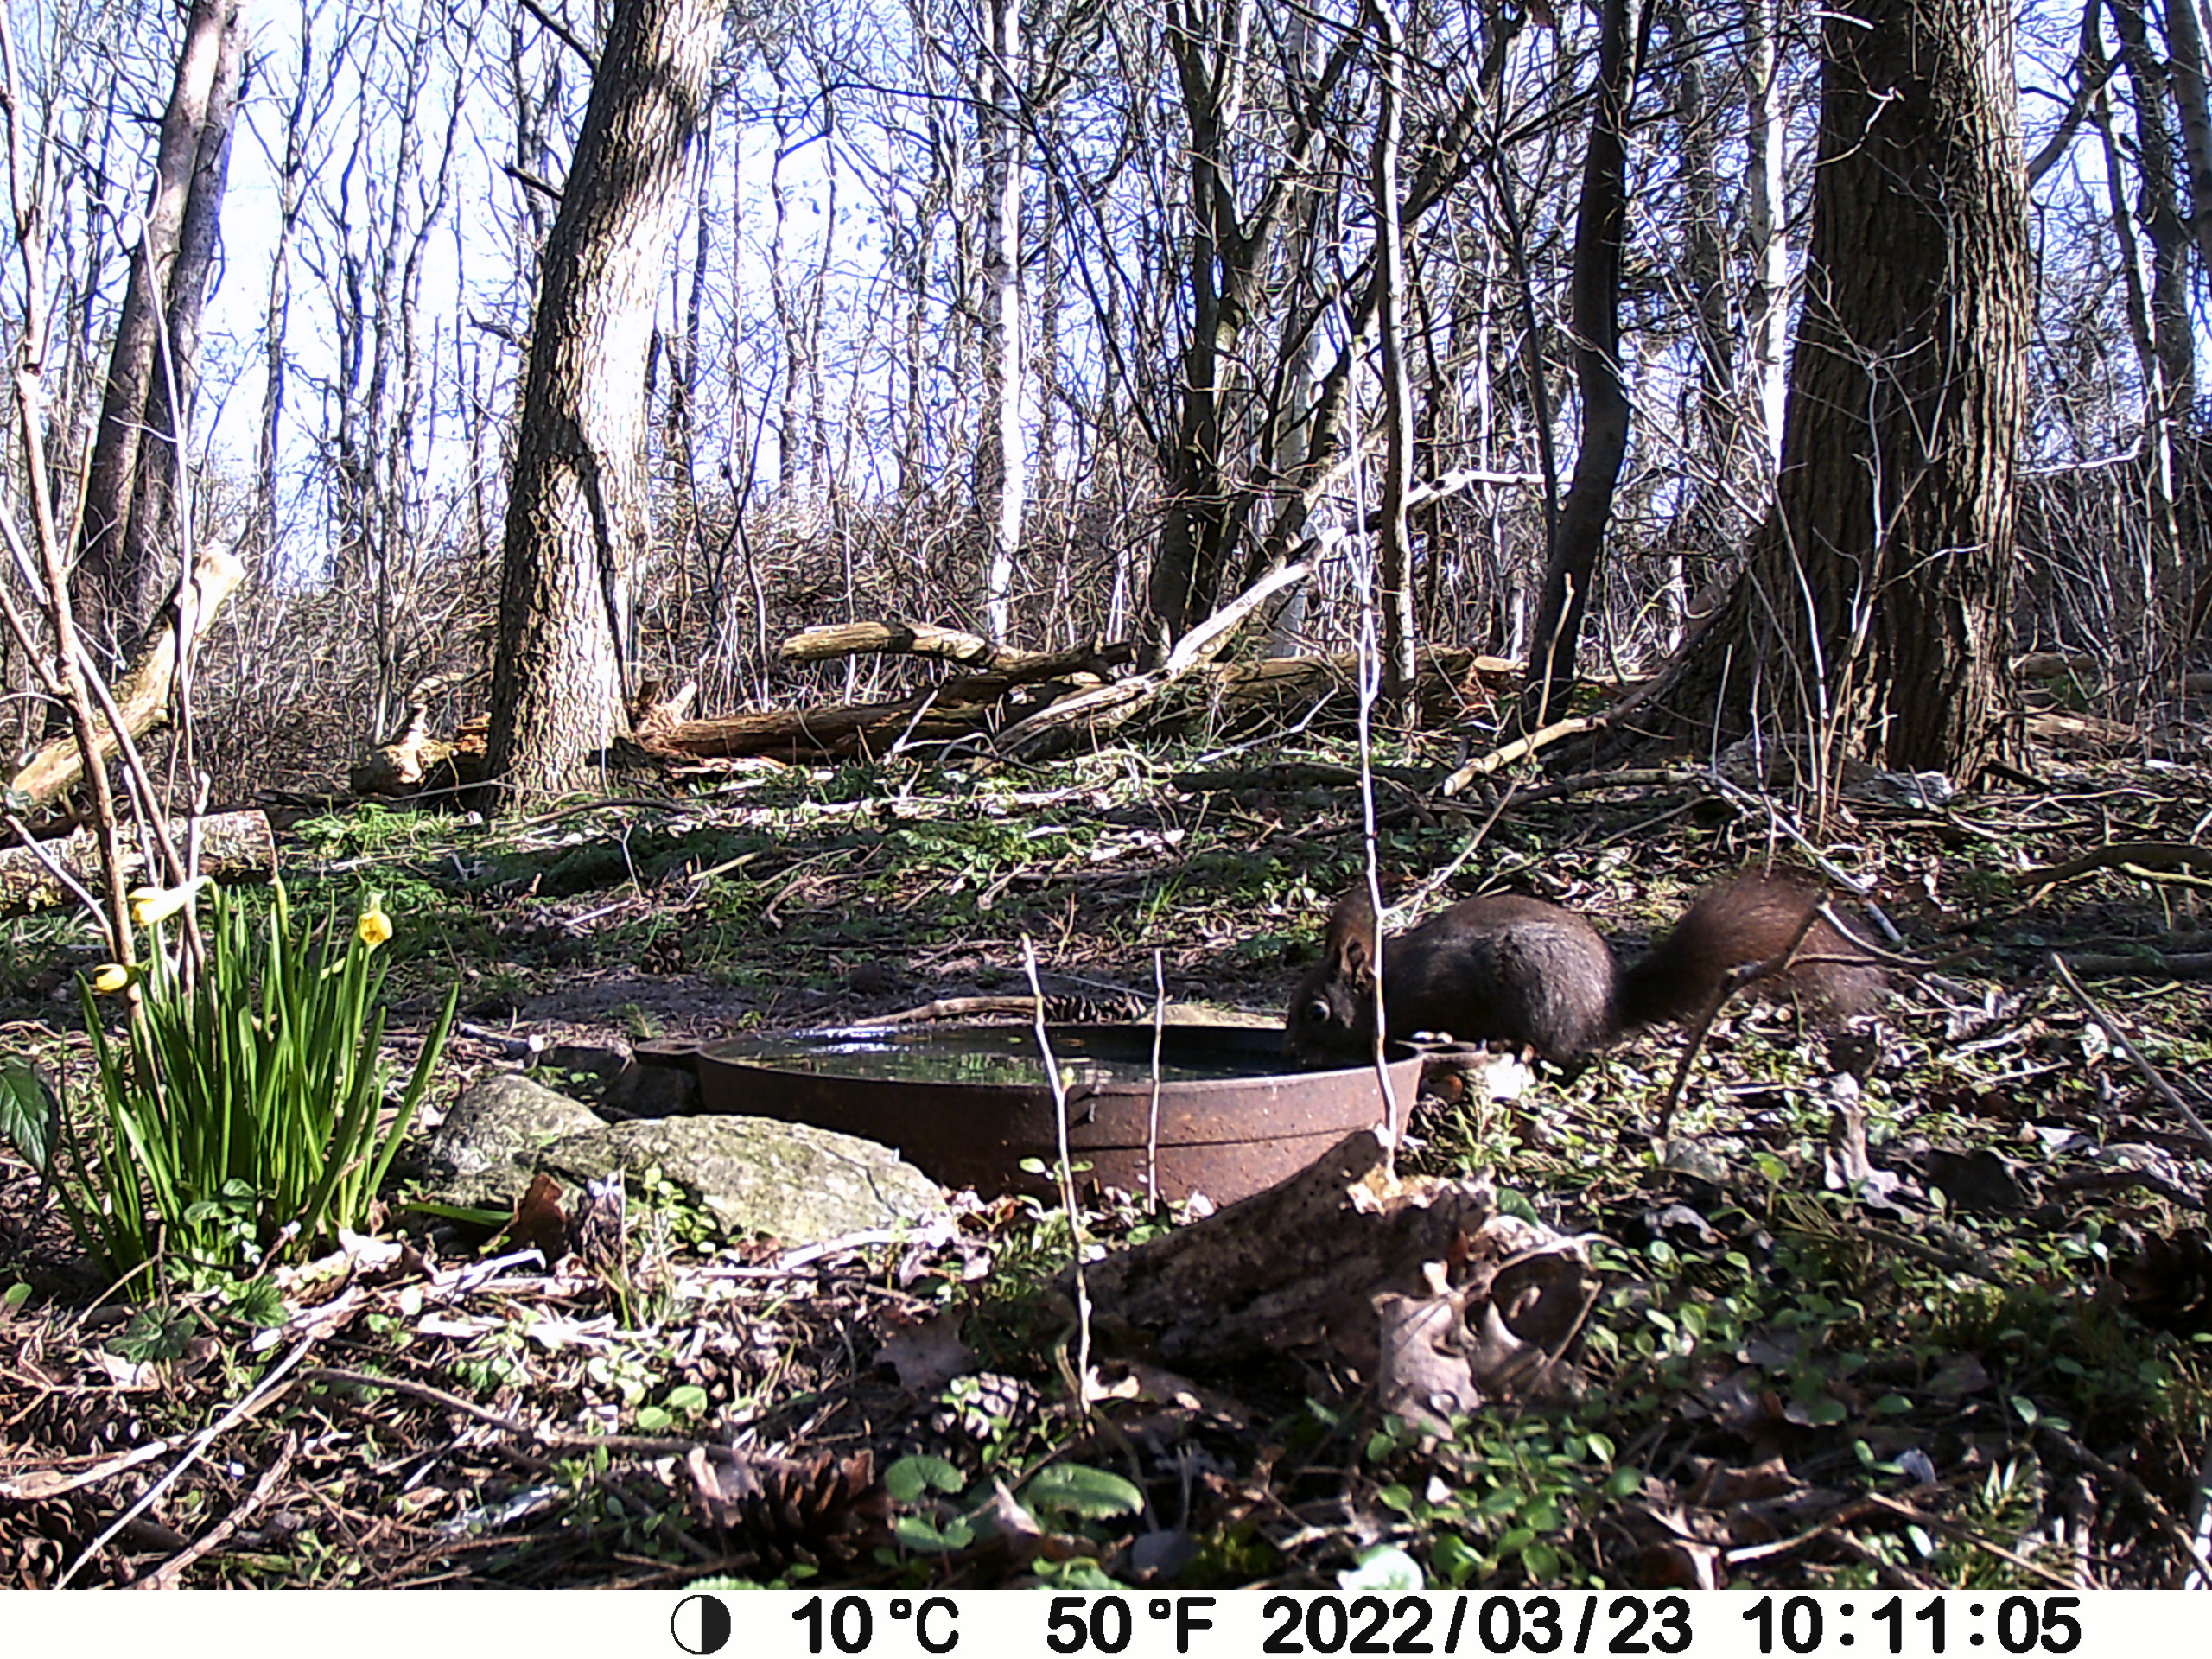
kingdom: Animalia
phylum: Chordata
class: Mammalia
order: Rodentia
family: Sciuridae
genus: Sciurus
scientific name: Sciurus vulgaris
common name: Egern
